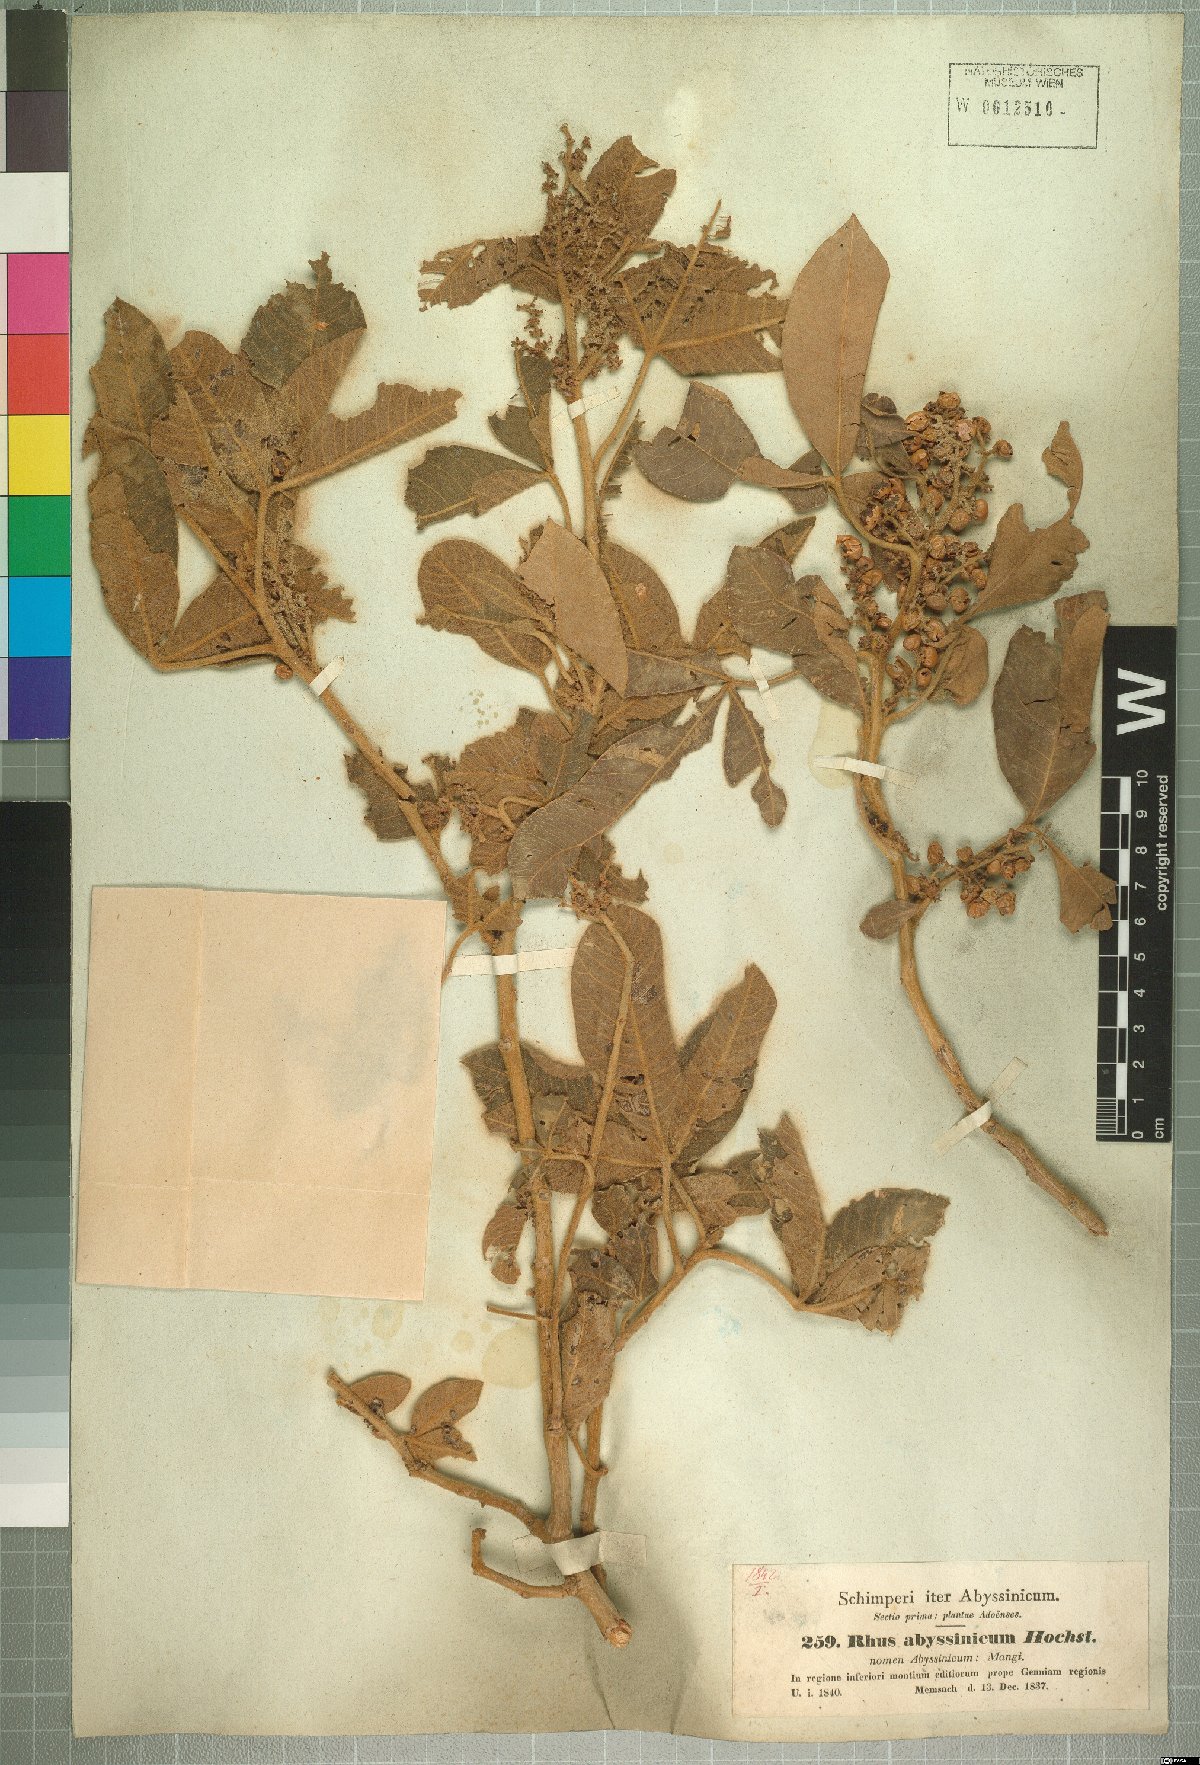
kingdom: Plantae
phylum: Tracheophyta
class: Magnoliopsida
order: Sapindales
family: Anacardiaceae
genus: Searsia
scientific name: Searsia glutinosa
